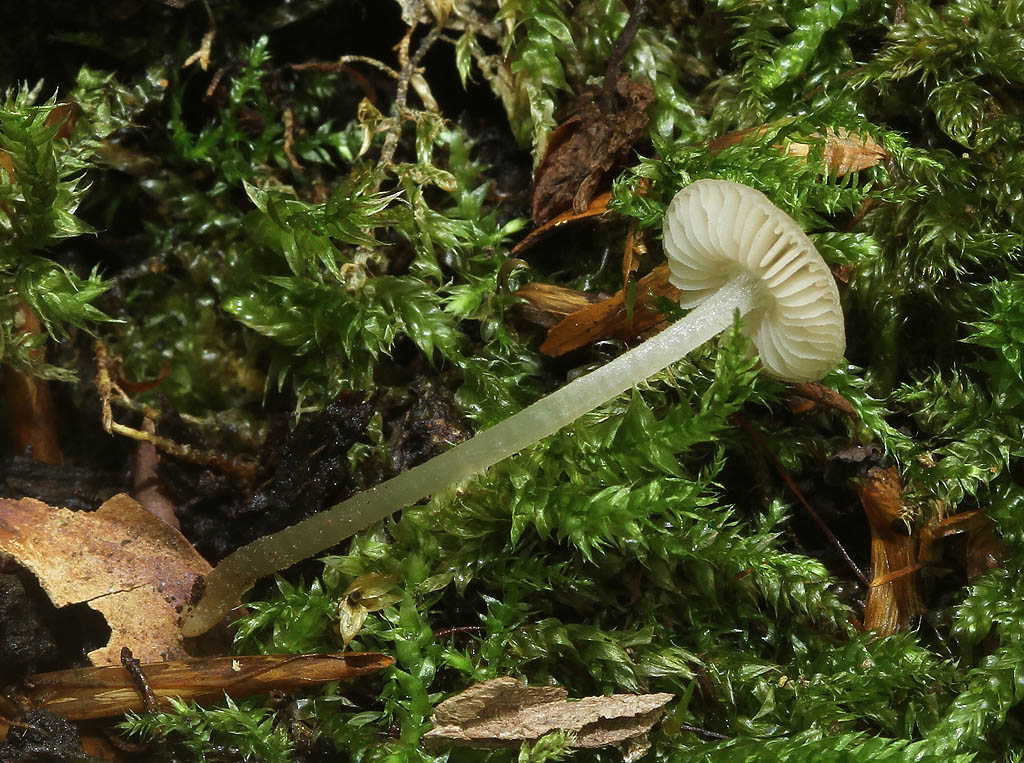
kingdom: Fungi
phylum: Basidiomycota
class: Agaricomycetes
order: Agaricales
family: Pluteaceae
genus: Pluteus
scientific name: Pluteus insidiosus
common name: næbbet skærmhat
